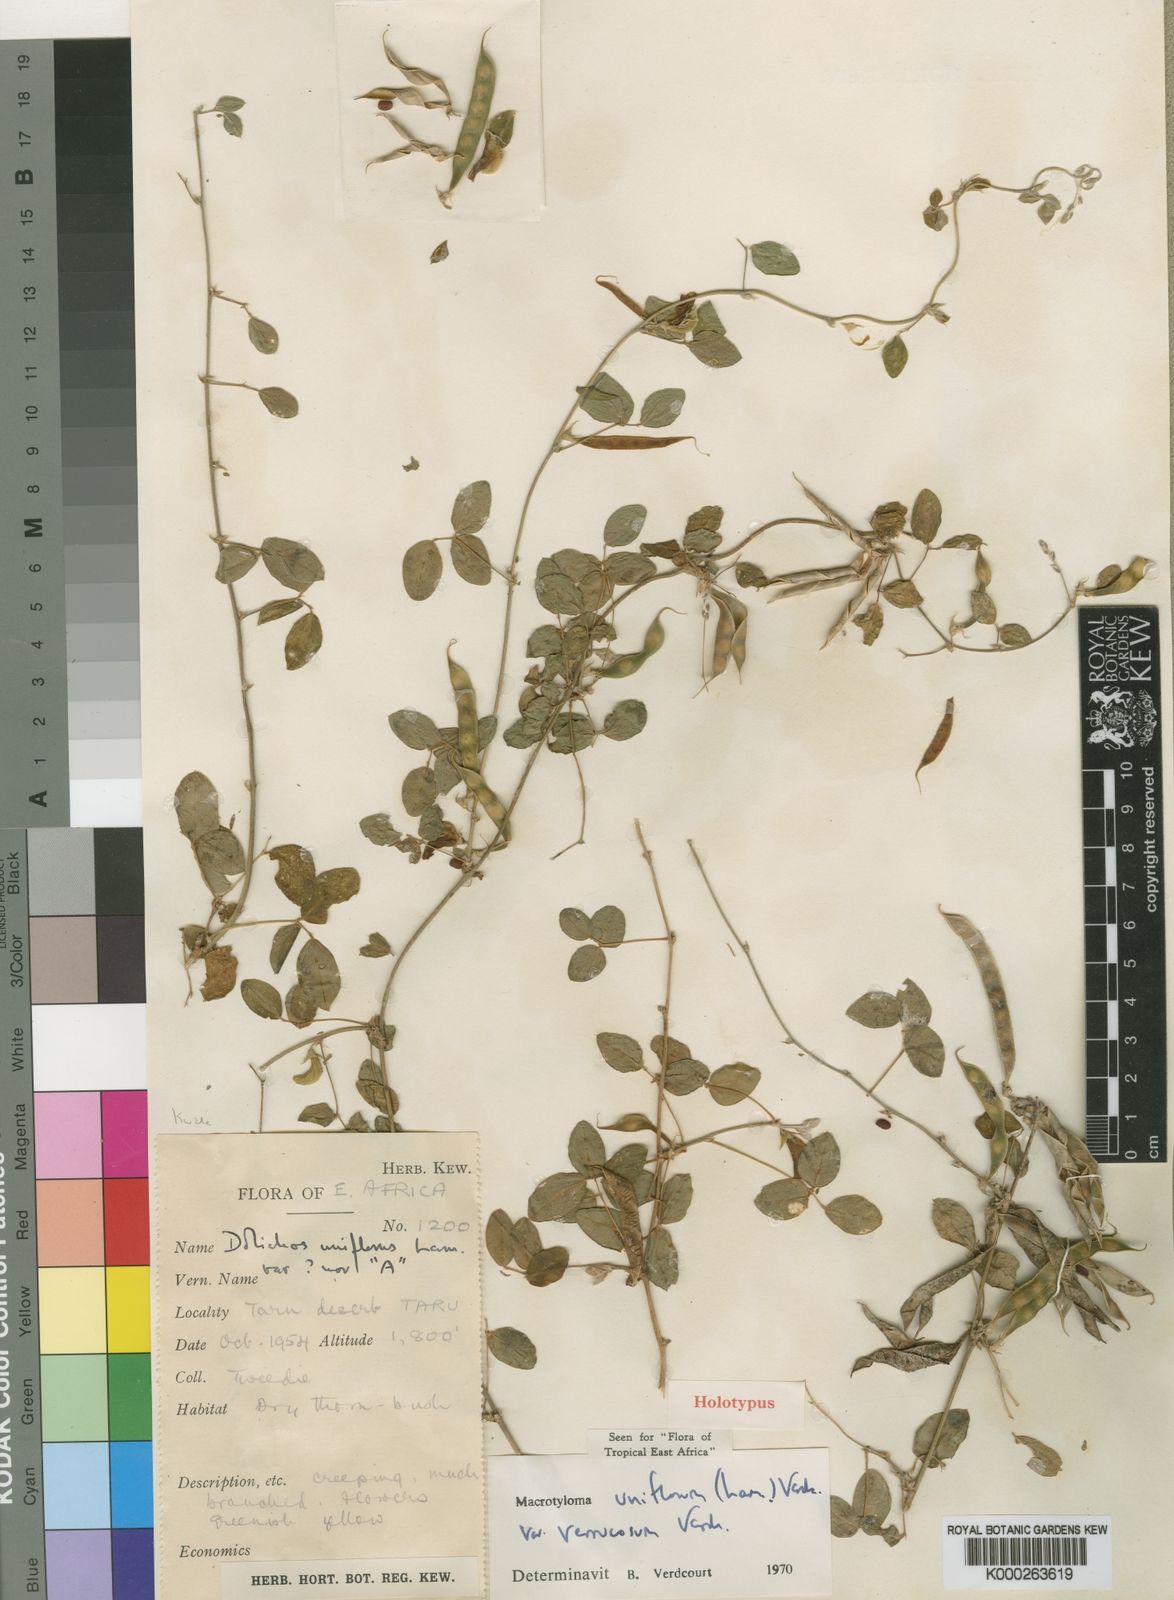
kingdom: Plantae
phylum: Tracheophyta
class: Magnoliopsida
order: Fabales
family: Fabaceae
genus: Macrotyloma
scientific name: Macrotyloma uniflorum
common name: Horse gram
